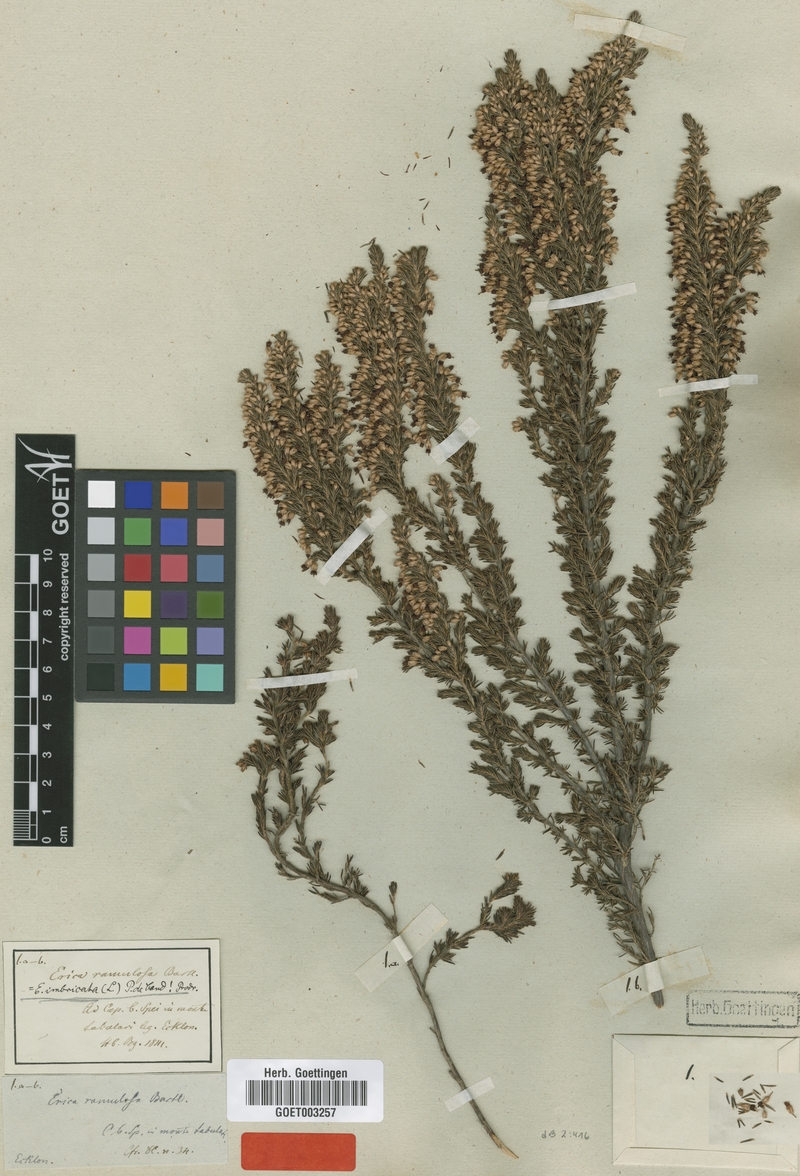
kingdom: Plantae
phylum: Tracheophyta
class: Magnoliopsida
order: Ericales
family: Ericaceae
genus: Erica
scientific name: Erica imbricata
